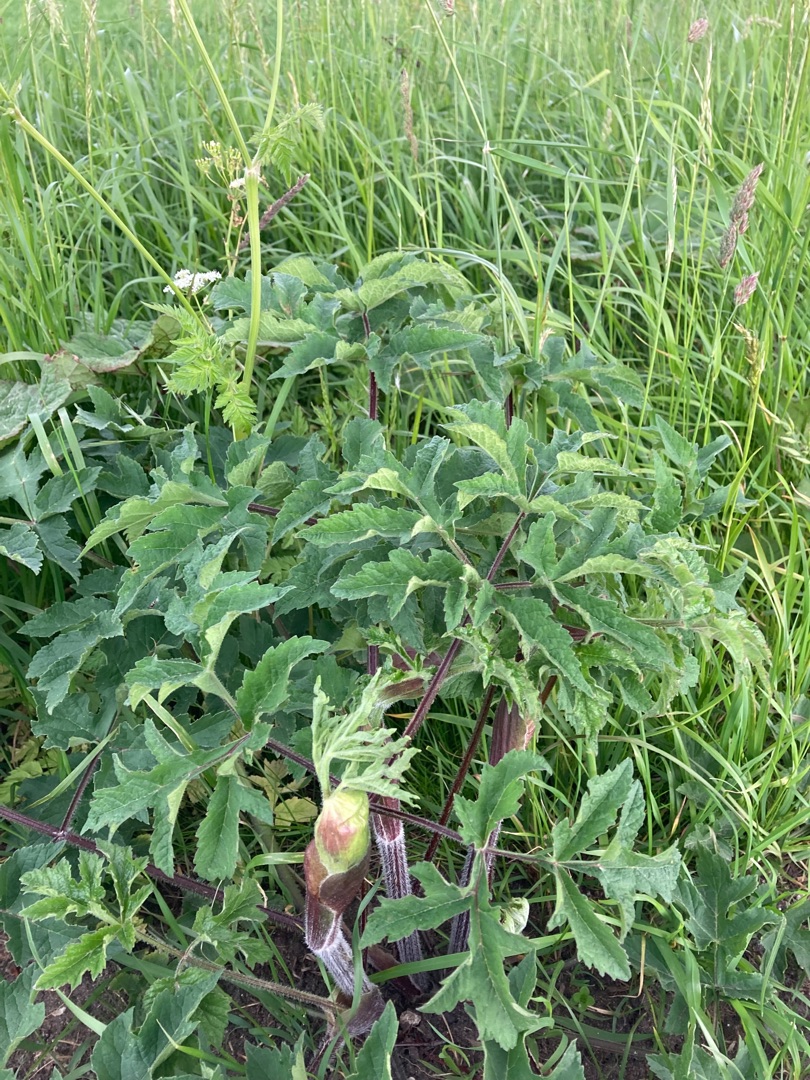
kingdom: Plantae
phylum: Tracheophyta
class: Magnoliopsida
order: Apiales
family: Apiaceae
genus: Heracleum
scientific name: Heracleum sphondylium
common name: Almindelig bjørneklo
